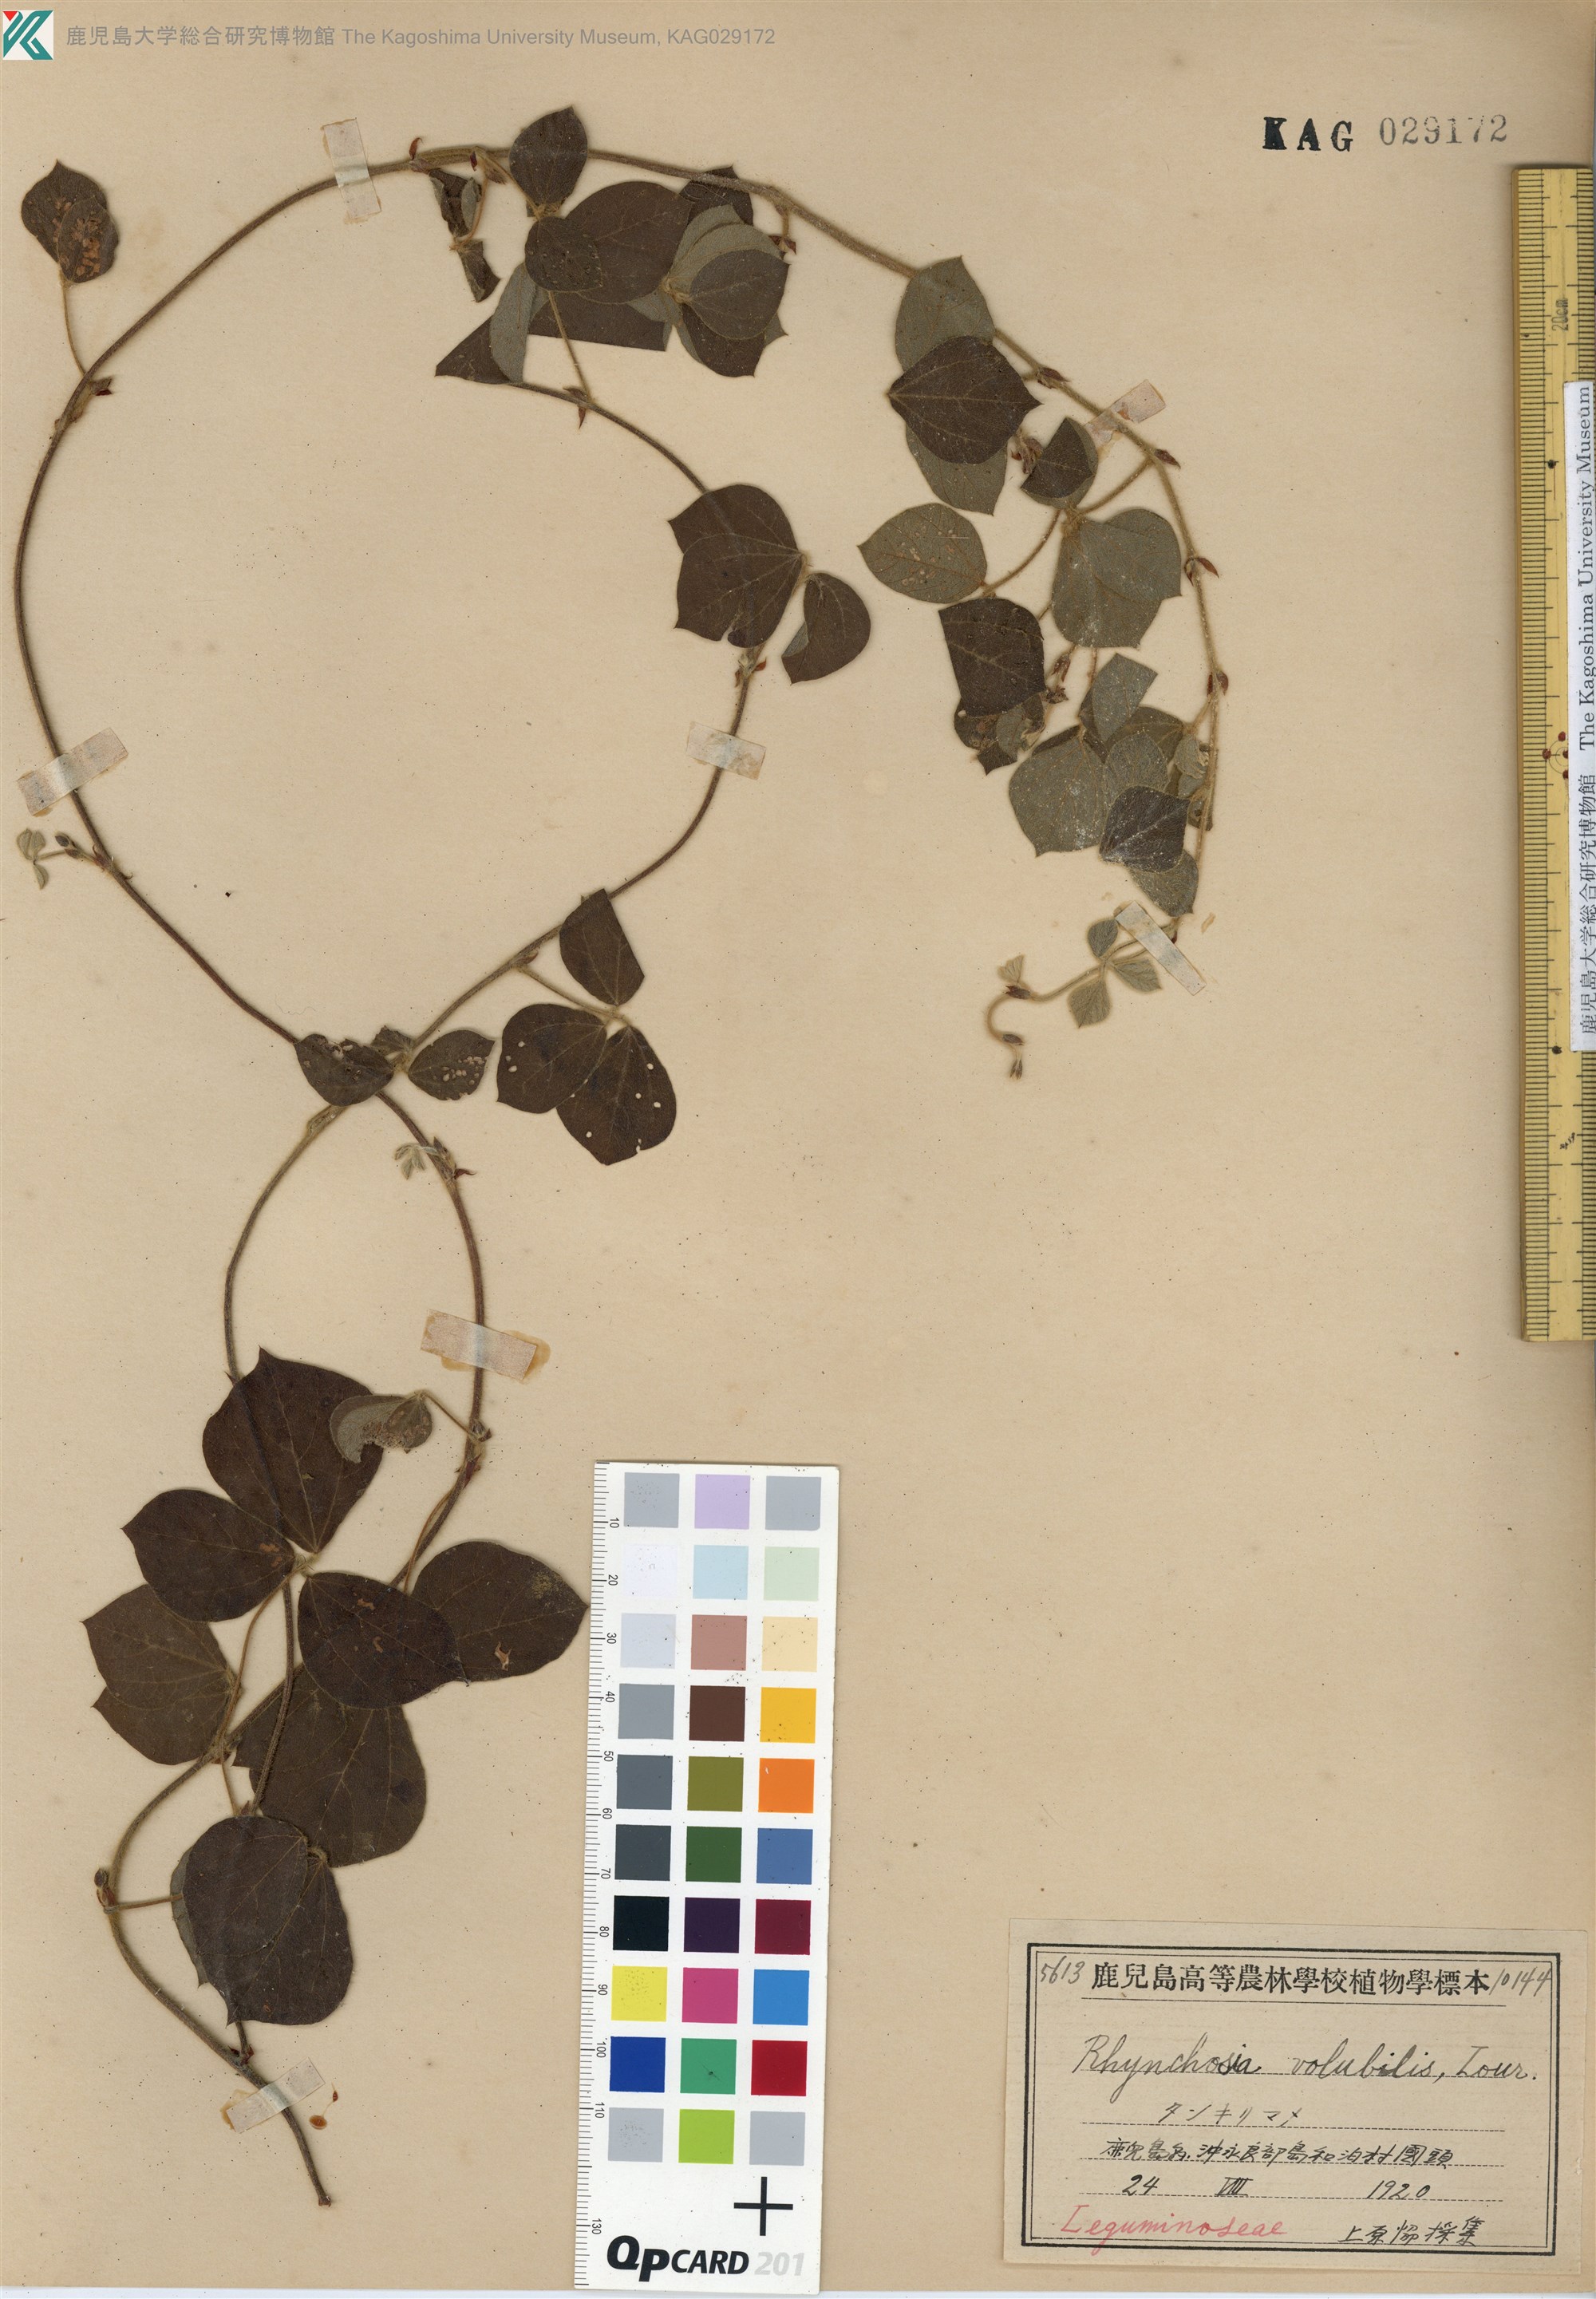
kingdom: Plantae
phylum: Tracheophyta
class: Magnoliopsida
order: Fabales
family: Fabaceae
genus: Rhynchosia
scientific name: Rhynchosia volubilis
